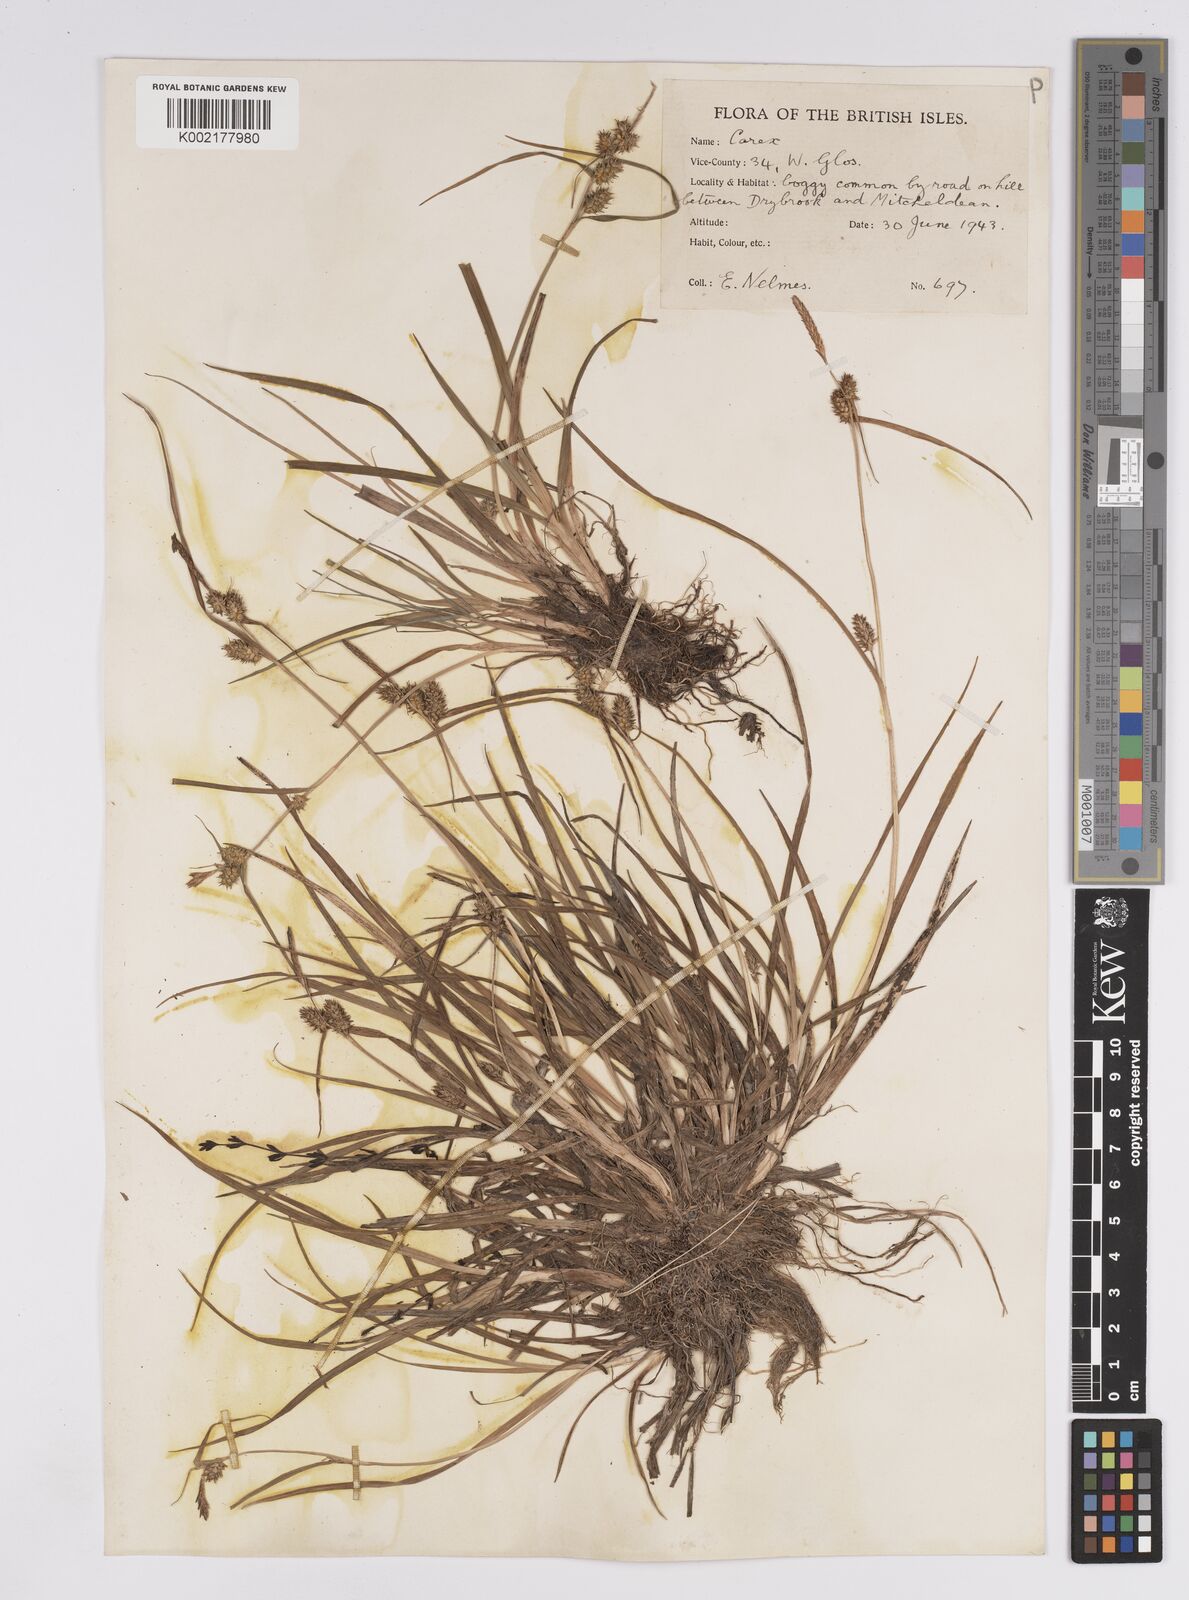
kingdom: Plantae
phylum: Tracheophyta
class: Liliopsida
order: Poales
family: Cyperaceae
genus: Carex
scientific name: Carex demissa
